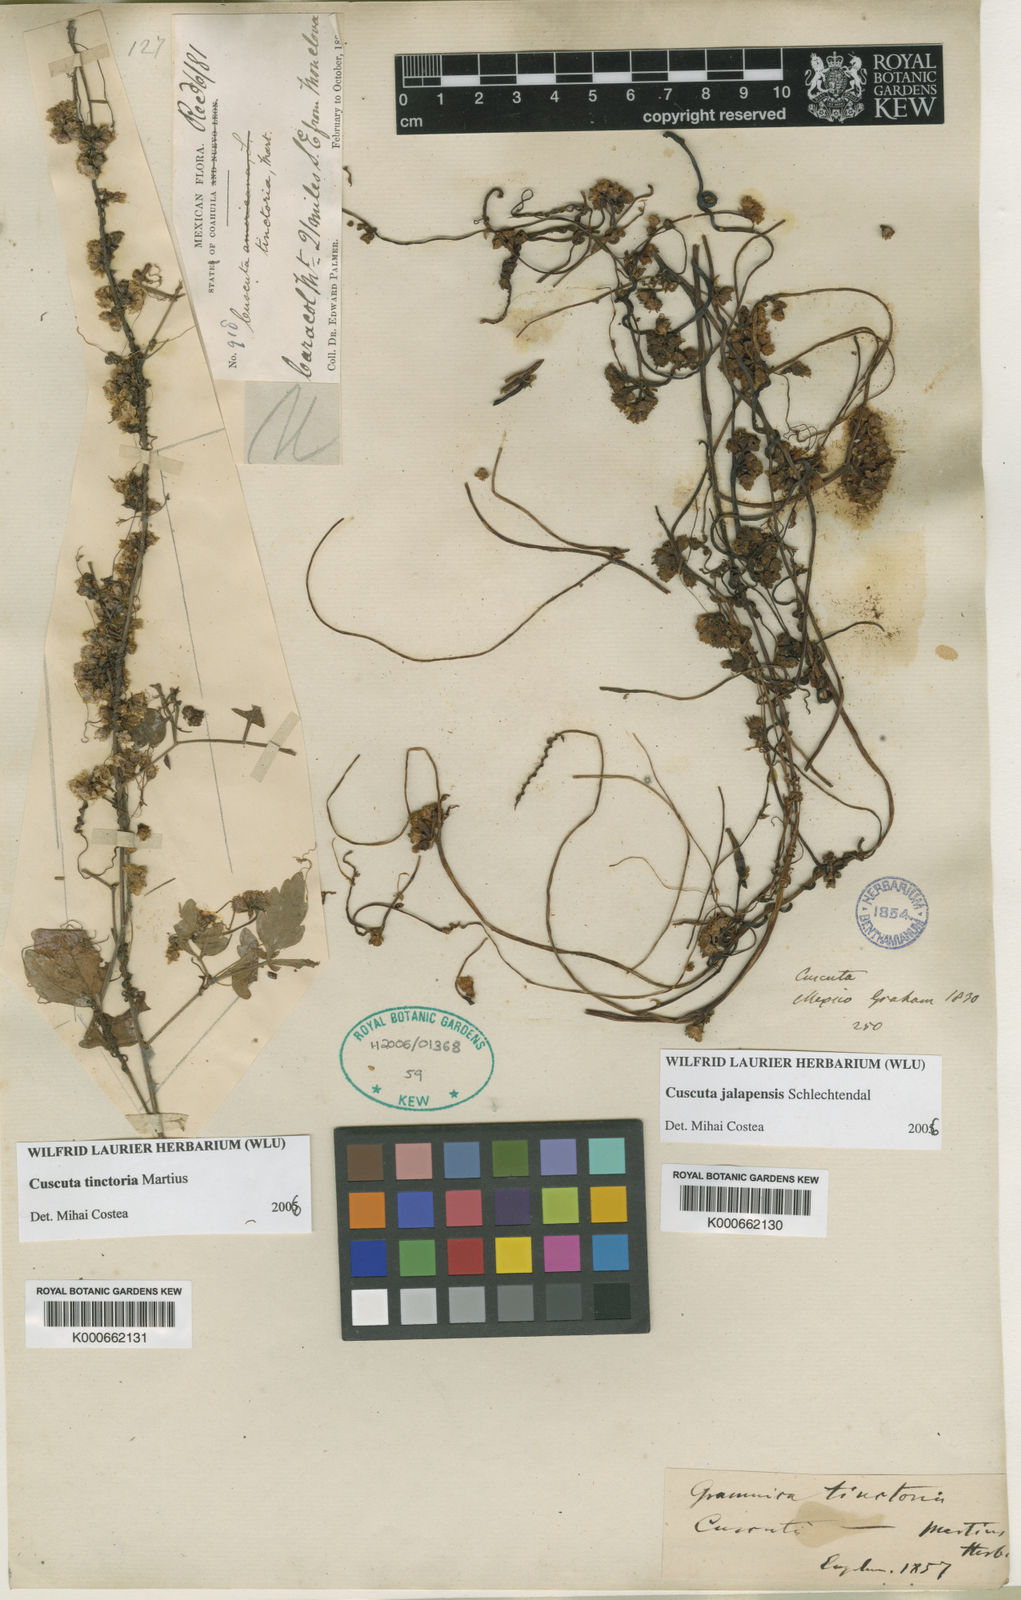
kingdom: Plantae
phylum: Tracheophyta
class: Magnoliopsida
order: Solanales
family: Convolvulaceae
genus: Cuscuta
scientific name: Cuscuta tinctoria
